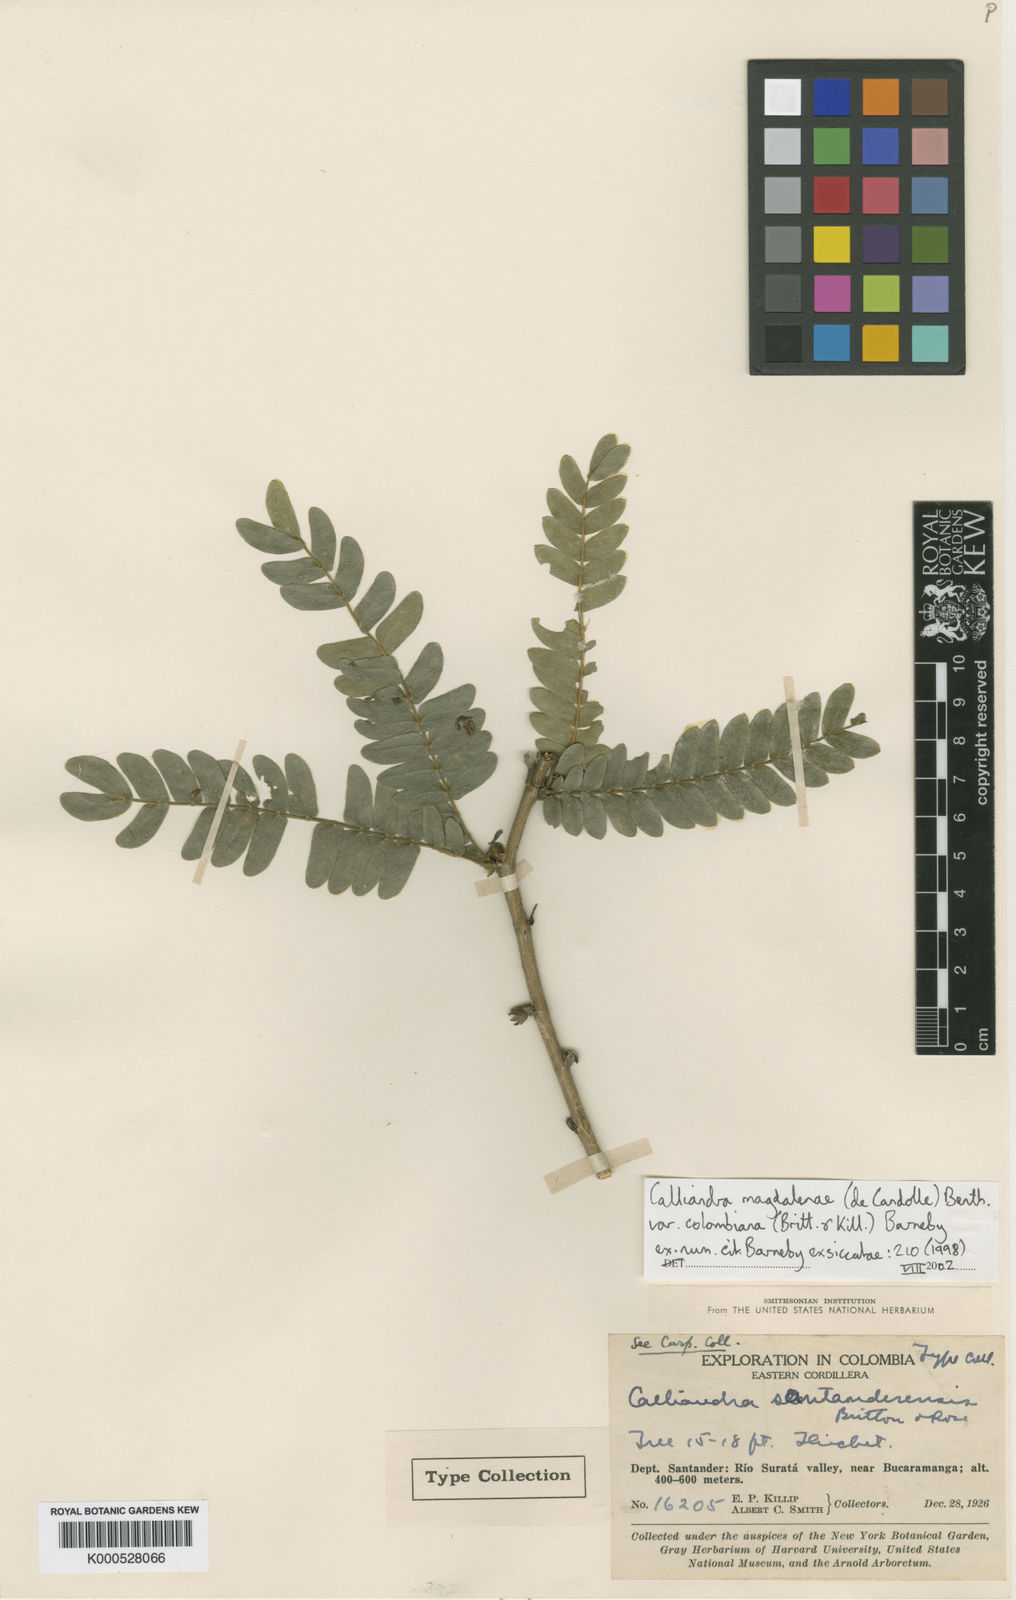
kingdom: Plantae
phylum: Tracheophyta
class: Magnoliopsida
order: Fabales
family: Fabaceae
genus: Calliandra
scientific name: Calliandra magdalenae
